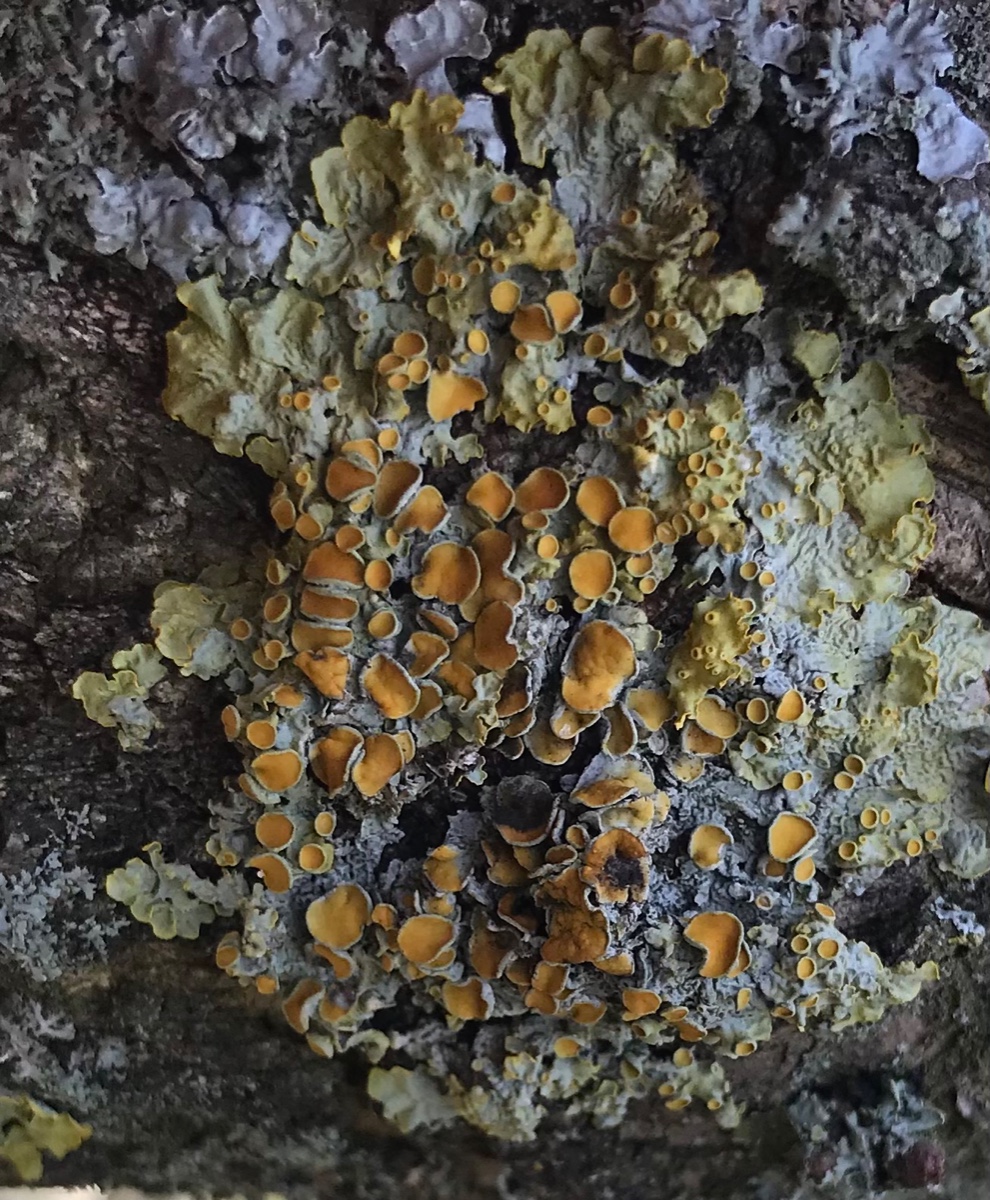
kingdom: Fungi
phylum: Ascomycota
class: Lecanoromycetes
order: Teloschistales
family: Teloschistaceae
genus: Xanthoria
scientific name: Xanthoria parietina
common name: almindelig væggelav
